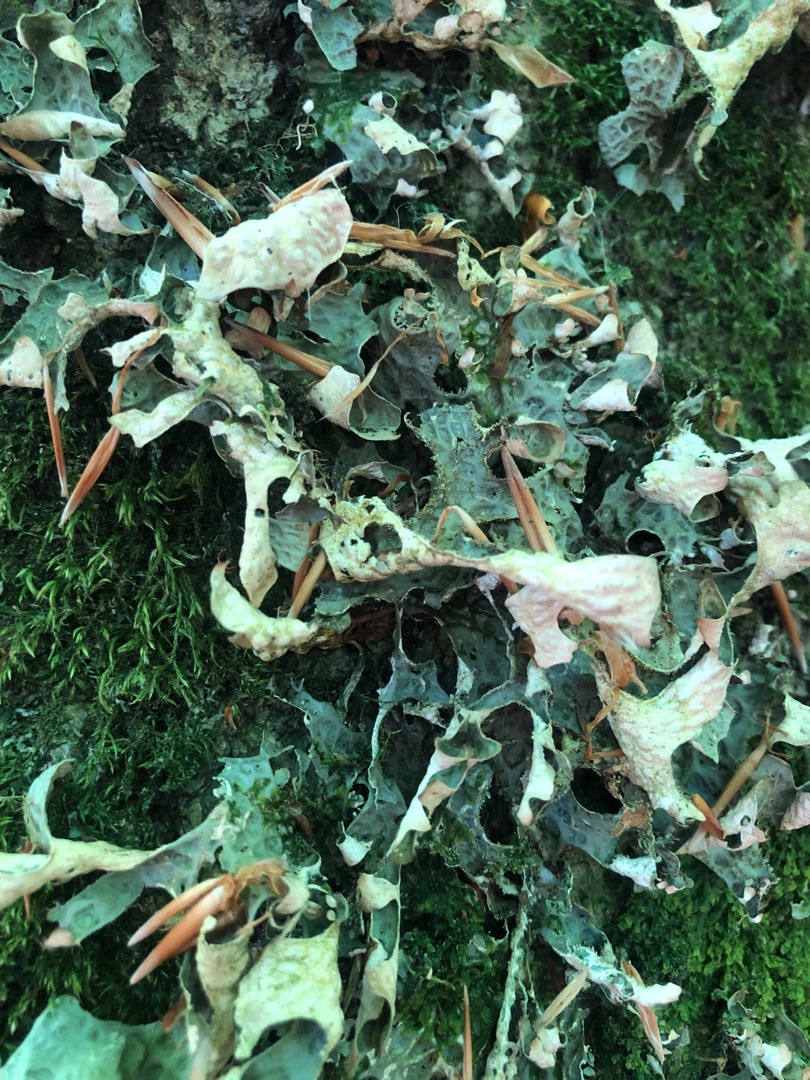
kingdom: Fungi
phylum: Ascomycota
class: Lecanoromycetes
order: Peltigerales
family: Lobariaceae
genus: Lobaria
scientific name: Lobaria pulmonaria
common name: Almindelig lungelav
